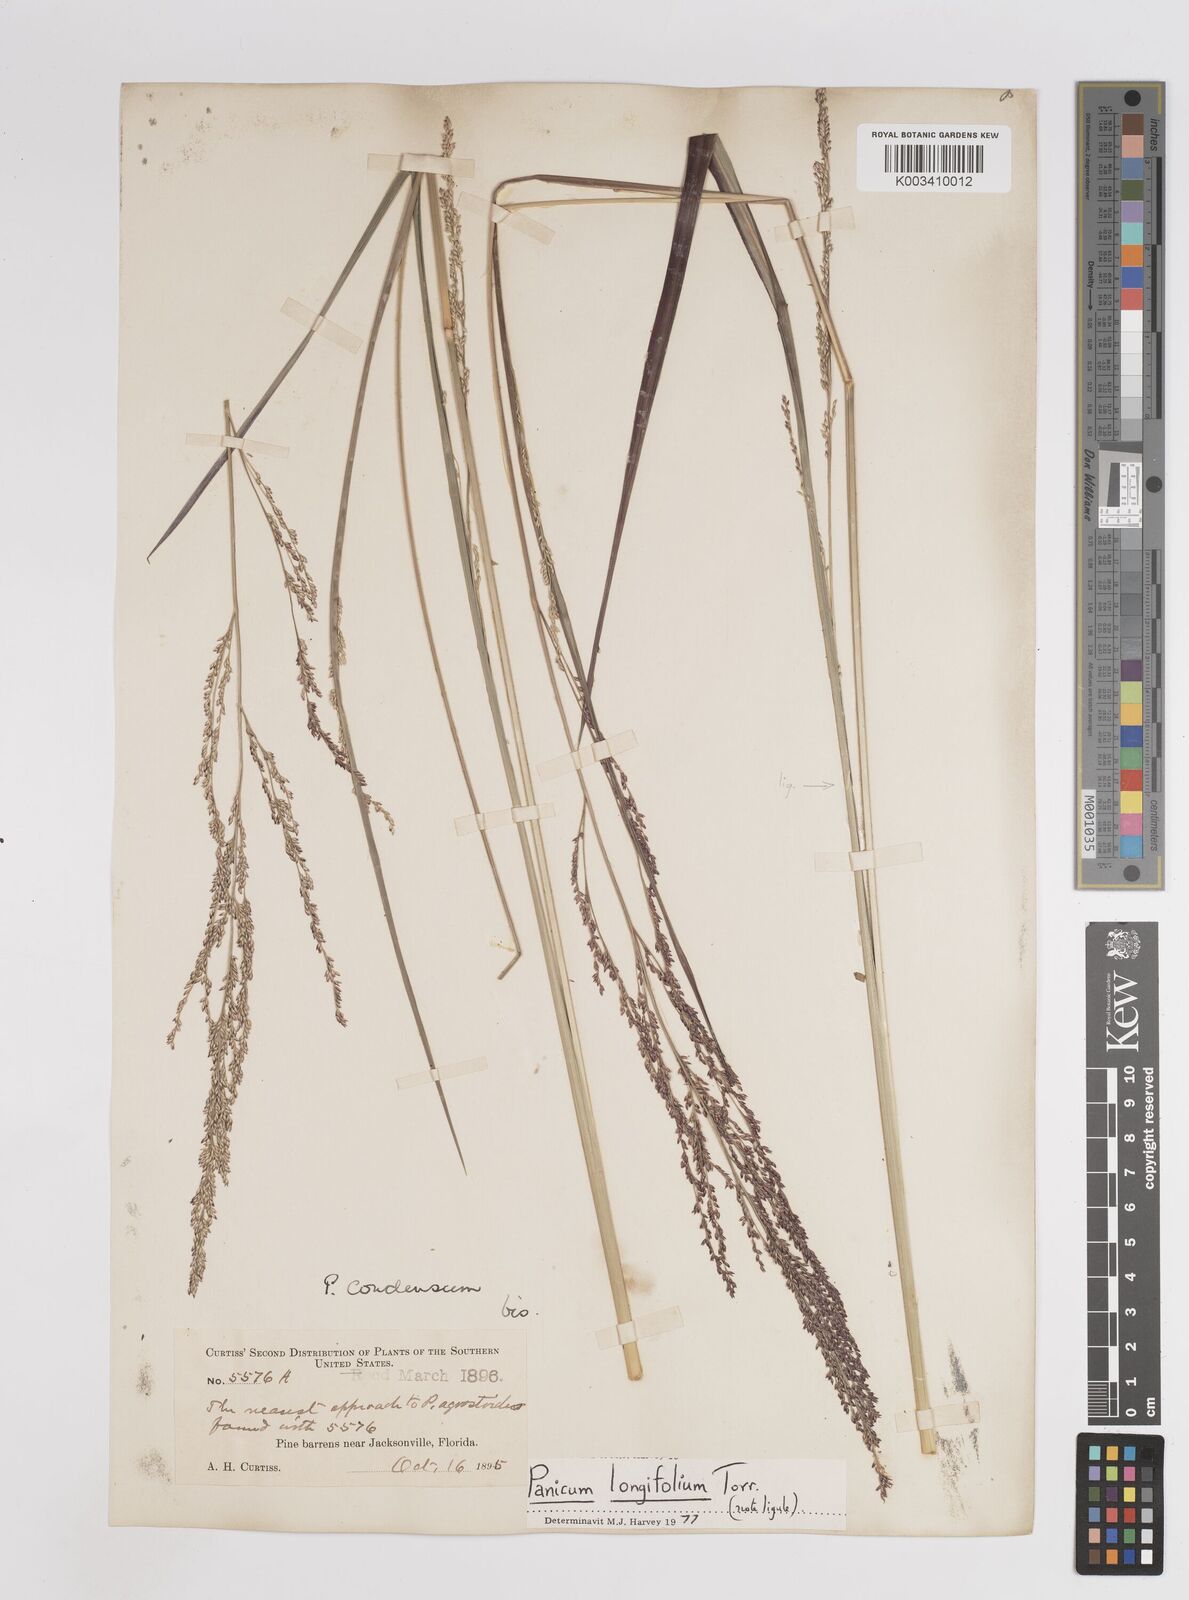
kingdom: Plantae
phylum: Tracheophyta
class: Liliopsida
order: Poales
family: Poaceae
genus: Coleataenia
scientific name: Coleataenia longifolia
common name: Long-leaved panicgrass
